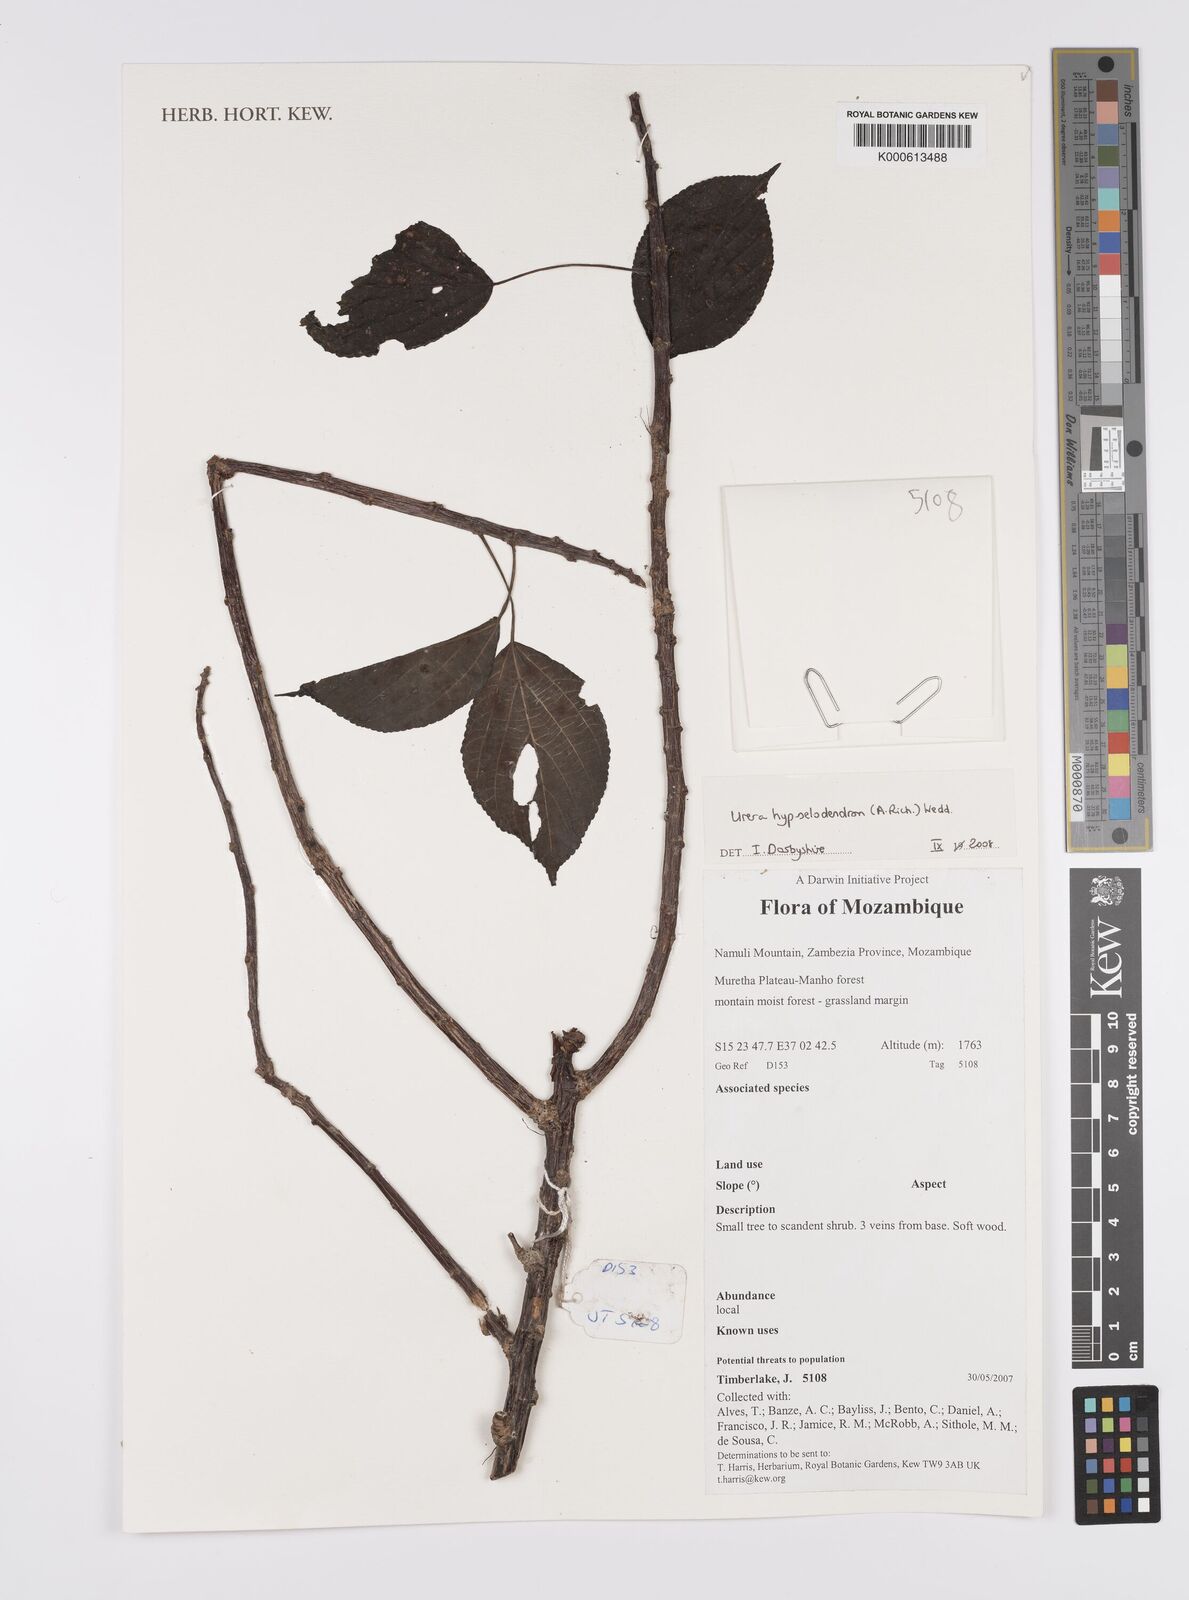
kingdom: Plantae
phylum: Tracheophyta
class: Magnoliopsida
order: Rosales
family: Urticaceae
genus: Scepocarpus
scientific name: Scepocarpus hypselodendron
